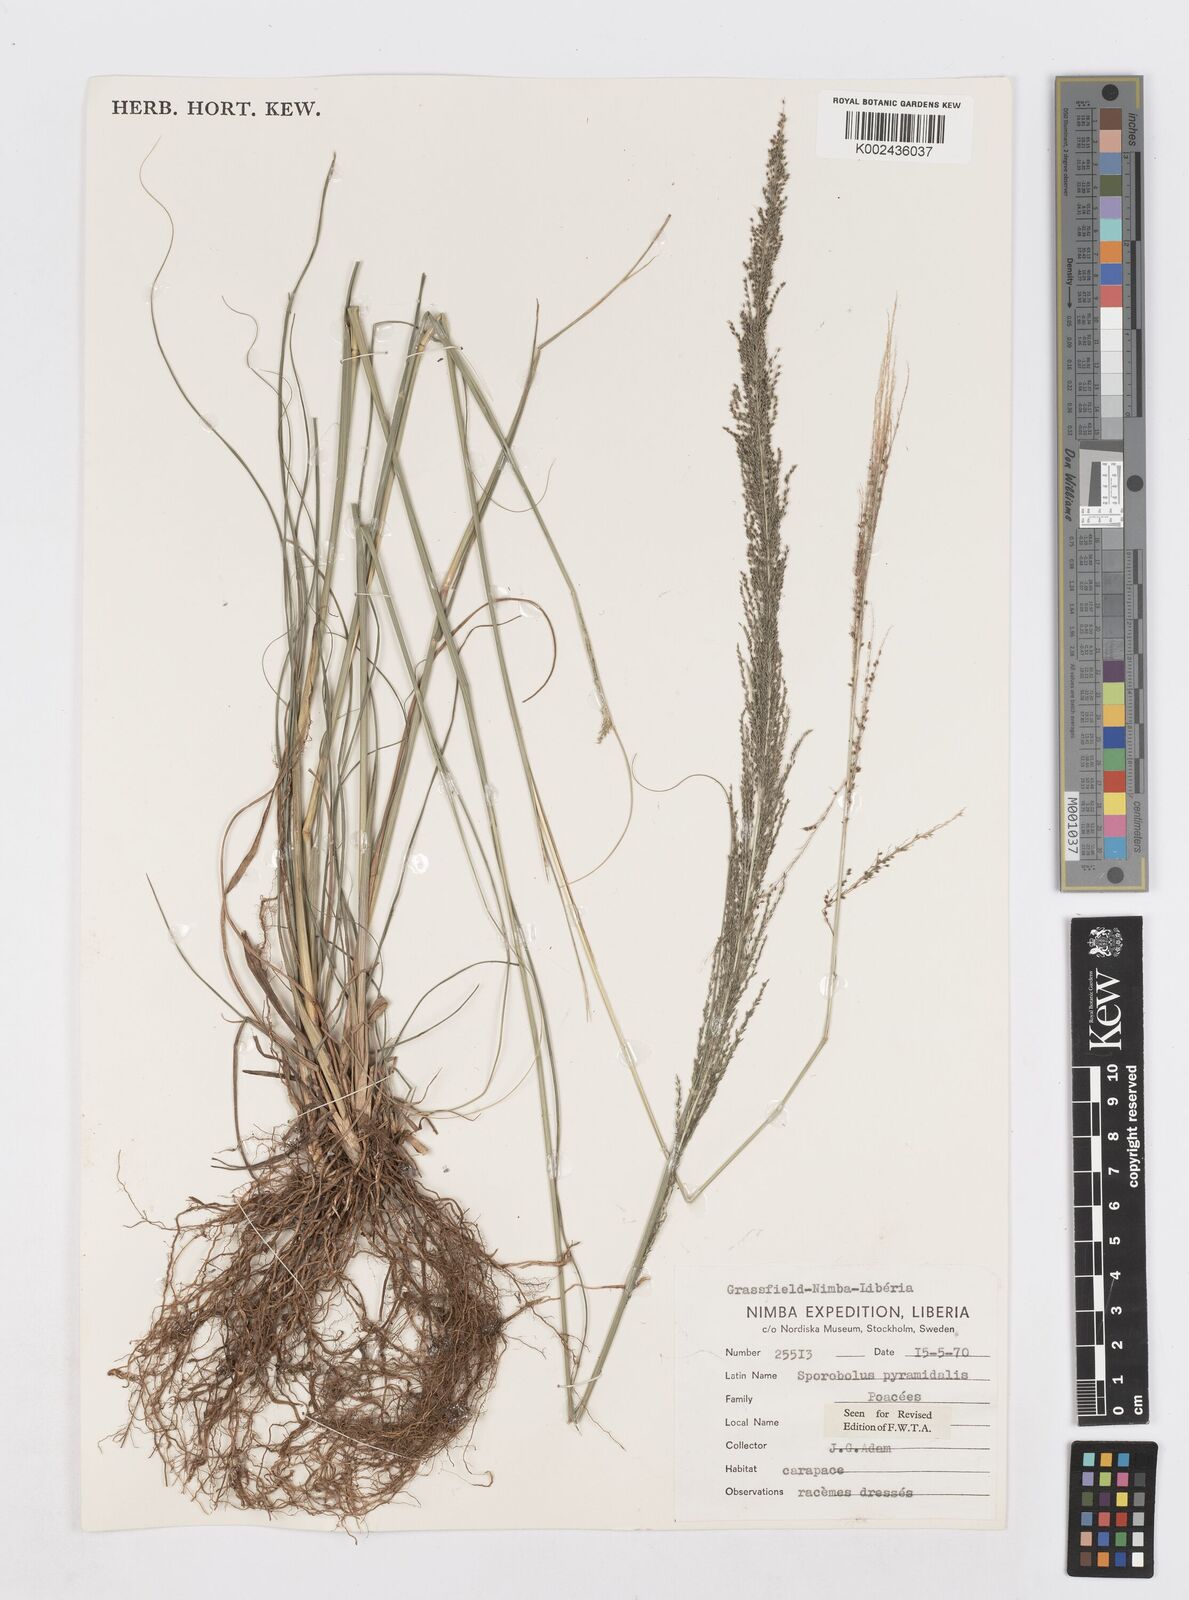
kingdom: Plantae
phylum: Tracheophyta
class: Liliopsida
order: Poales
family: Poaceae
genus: Sporobolus
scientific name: Sporobolus pyramidalis
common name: West indian dropseed
